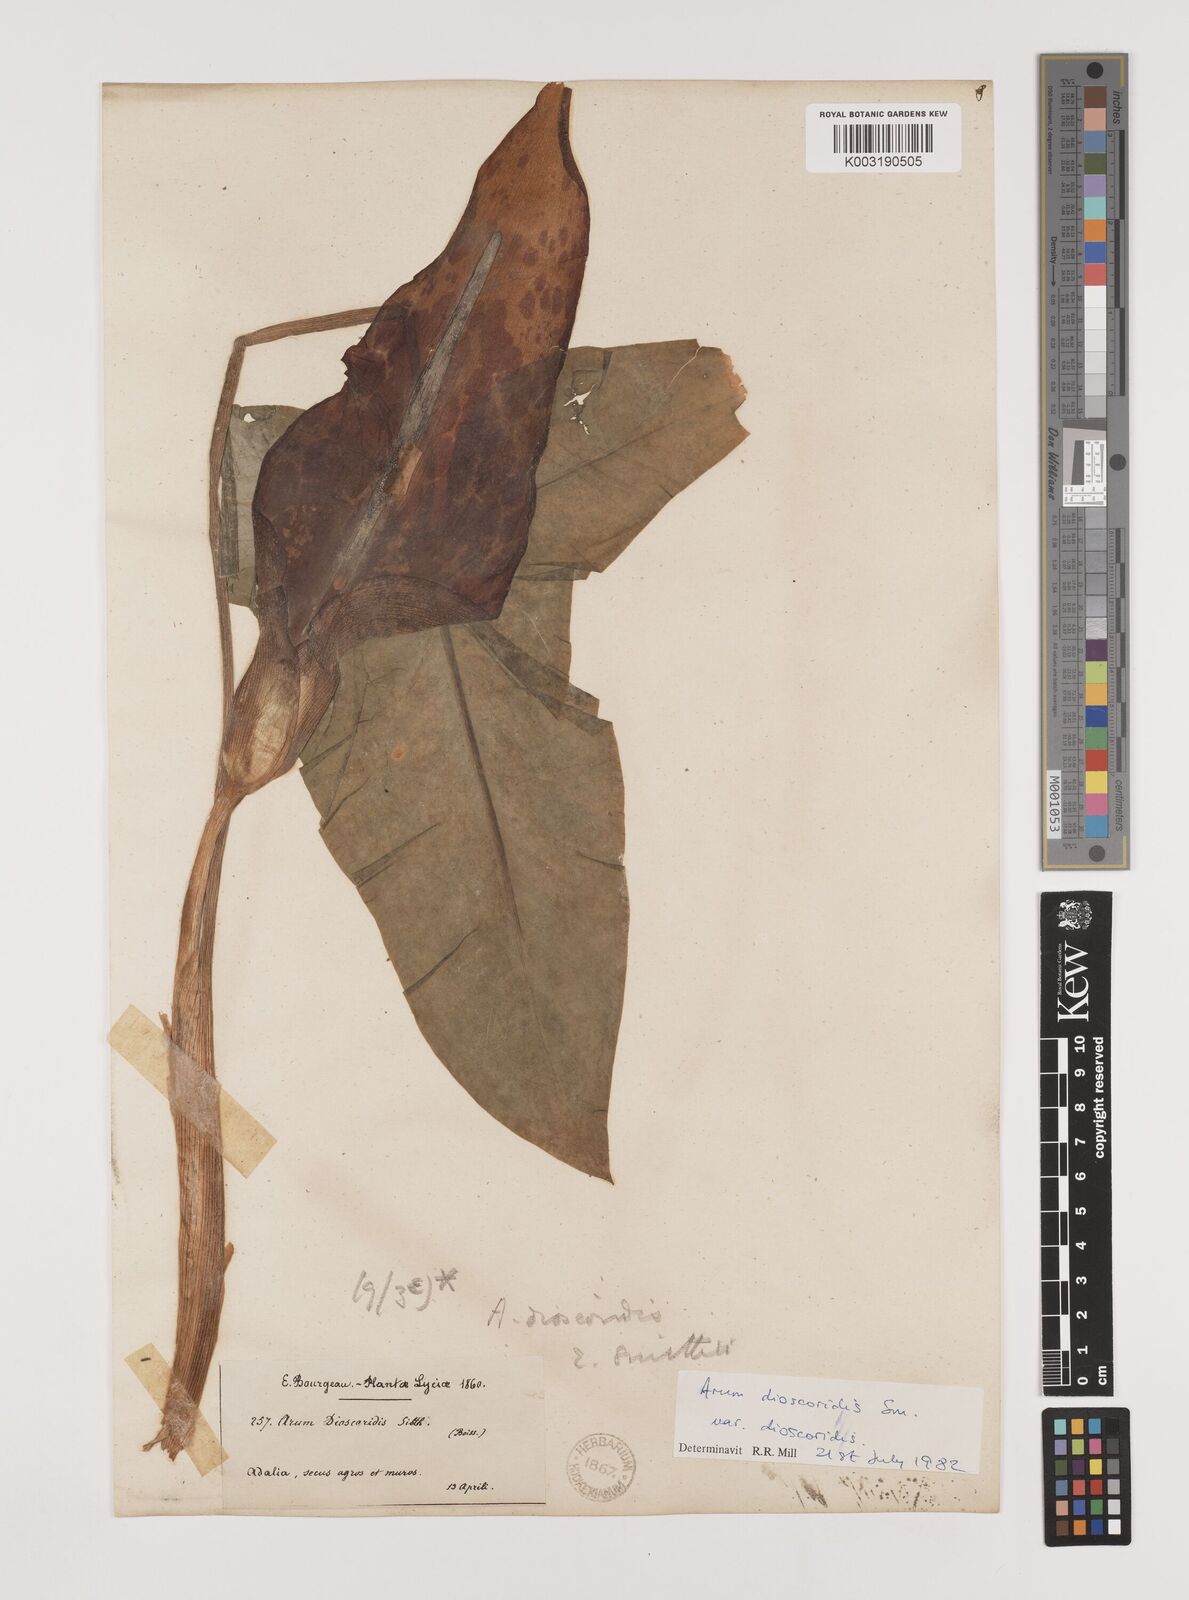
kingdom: Plantae
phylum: Tracheophyta
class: Liliopsida
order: Alismatales
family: Araceae
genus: Arum
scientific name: Arum dioscoridis
